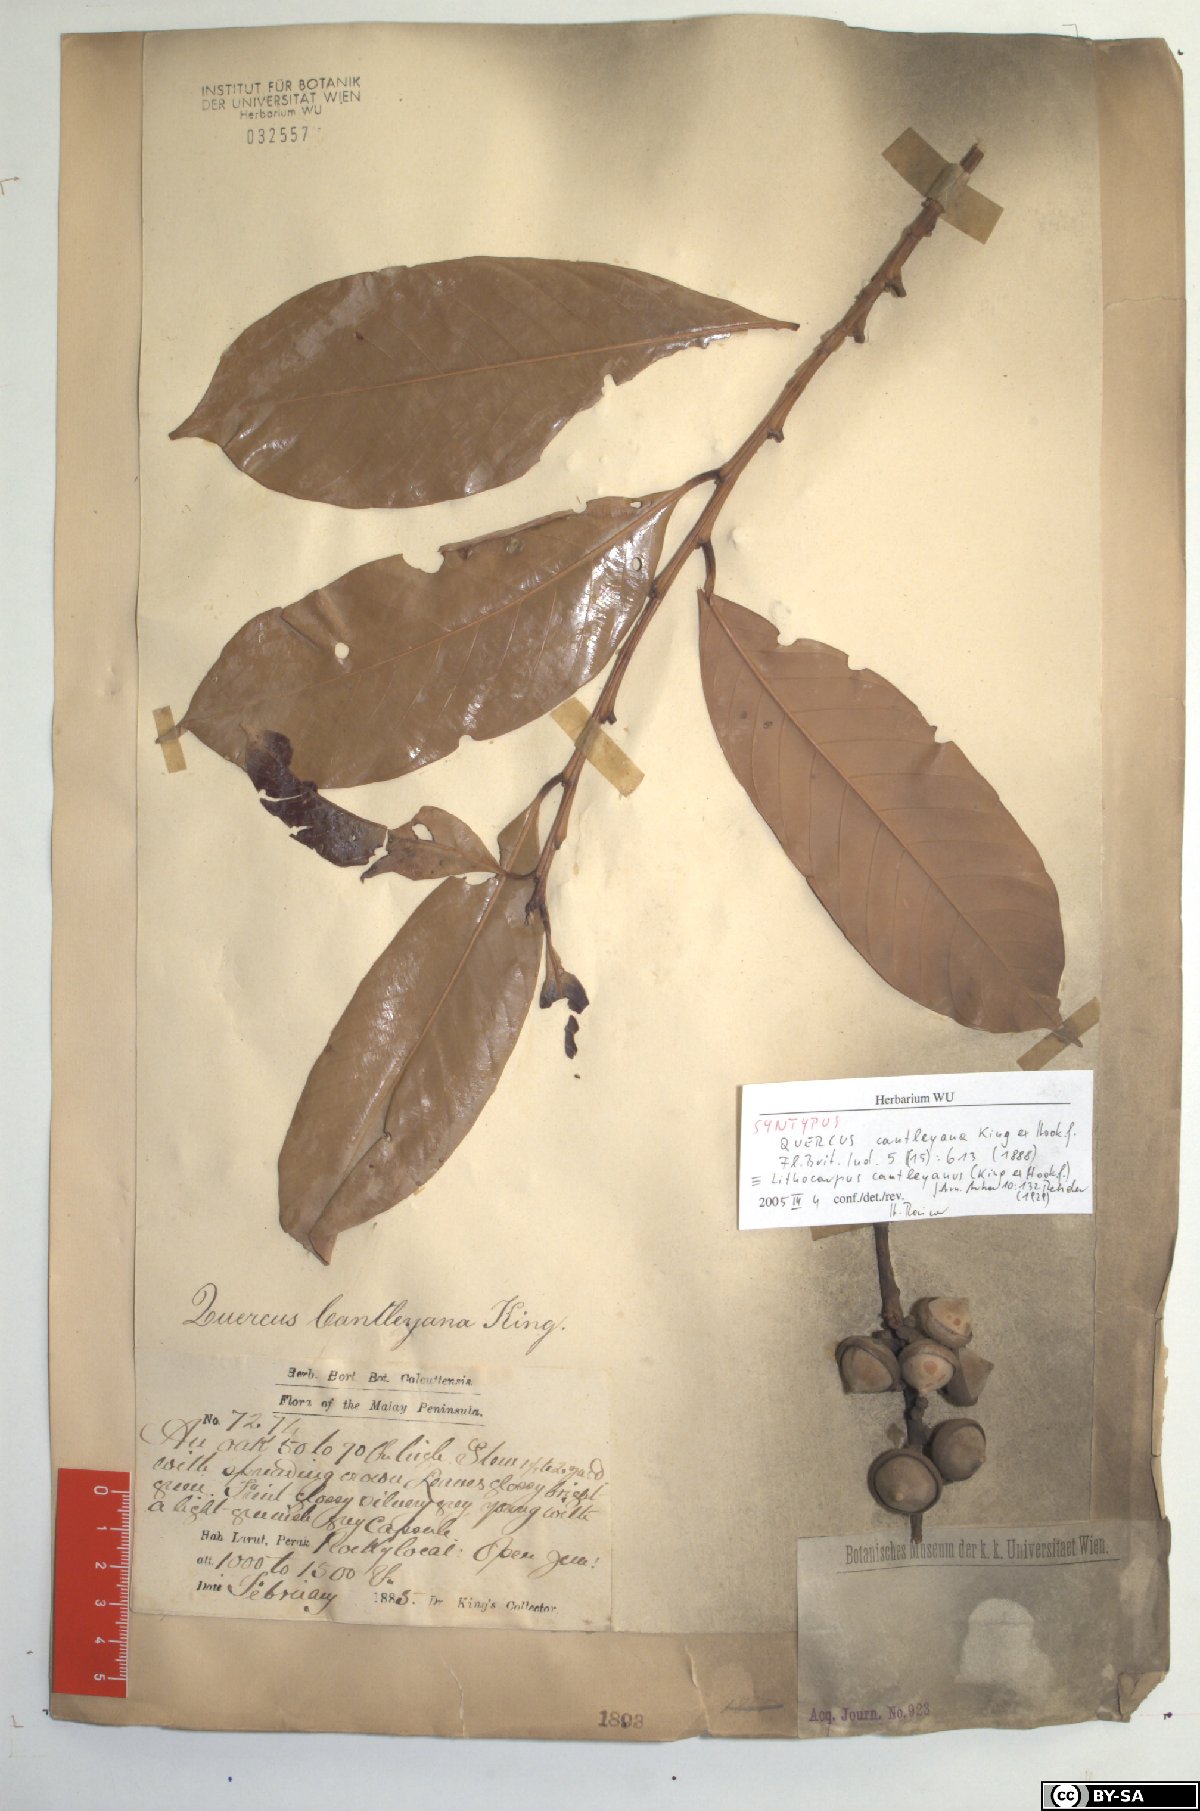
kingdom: Plantae
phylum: Tracheophyta
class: Magnoliopsida
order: Fagales
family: Fagaceae
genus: Lithocarpus
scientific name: Lithocarpus cantleyanus
